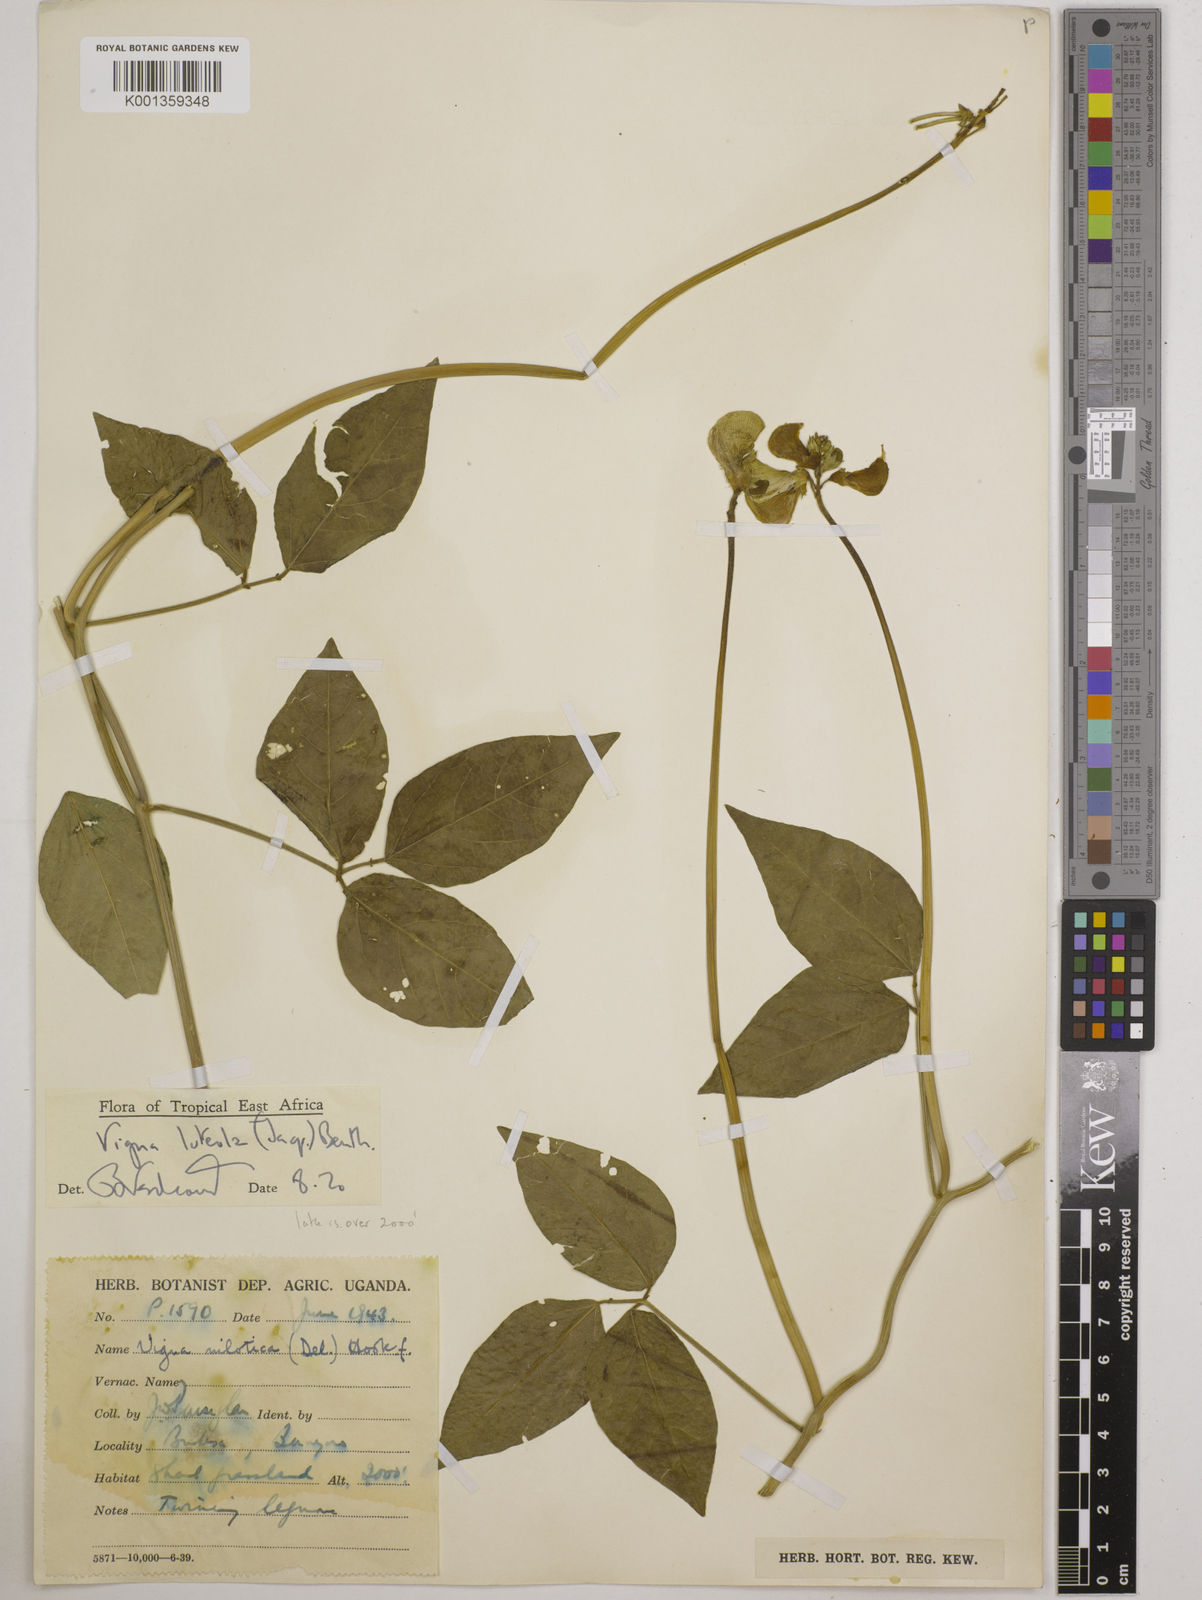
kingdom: Plantae
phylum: Tracheophyta
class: Magnoliopsida
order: Fabales
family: Fabaceae
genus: Vigna
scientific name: Vigna luteola
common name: Hairypod cowpea
